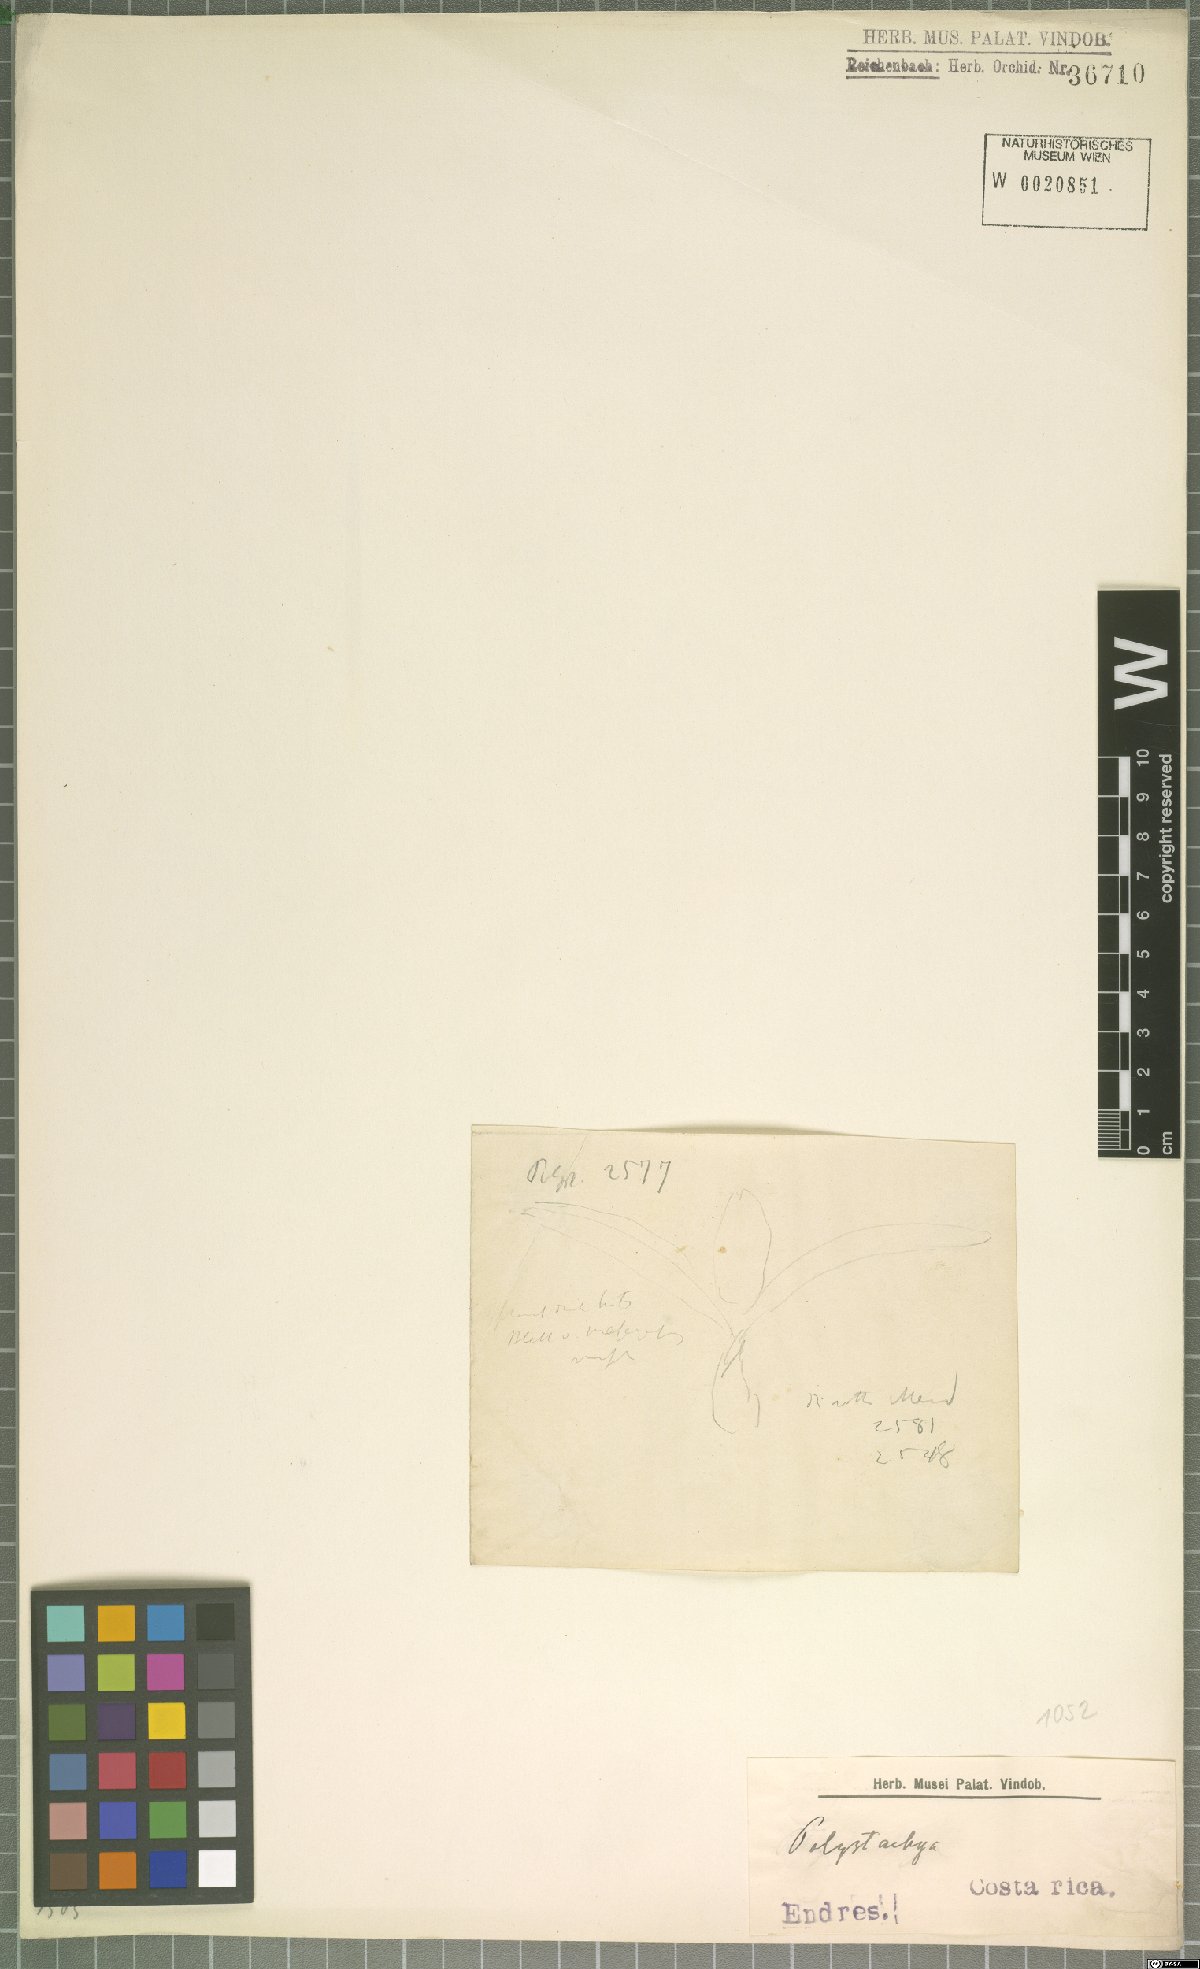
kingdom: Plantae
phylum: Tracheophyta
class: Liliopsida
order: Asparagales
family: Orchidaceae
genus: Polystachya
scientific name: Polystachya
